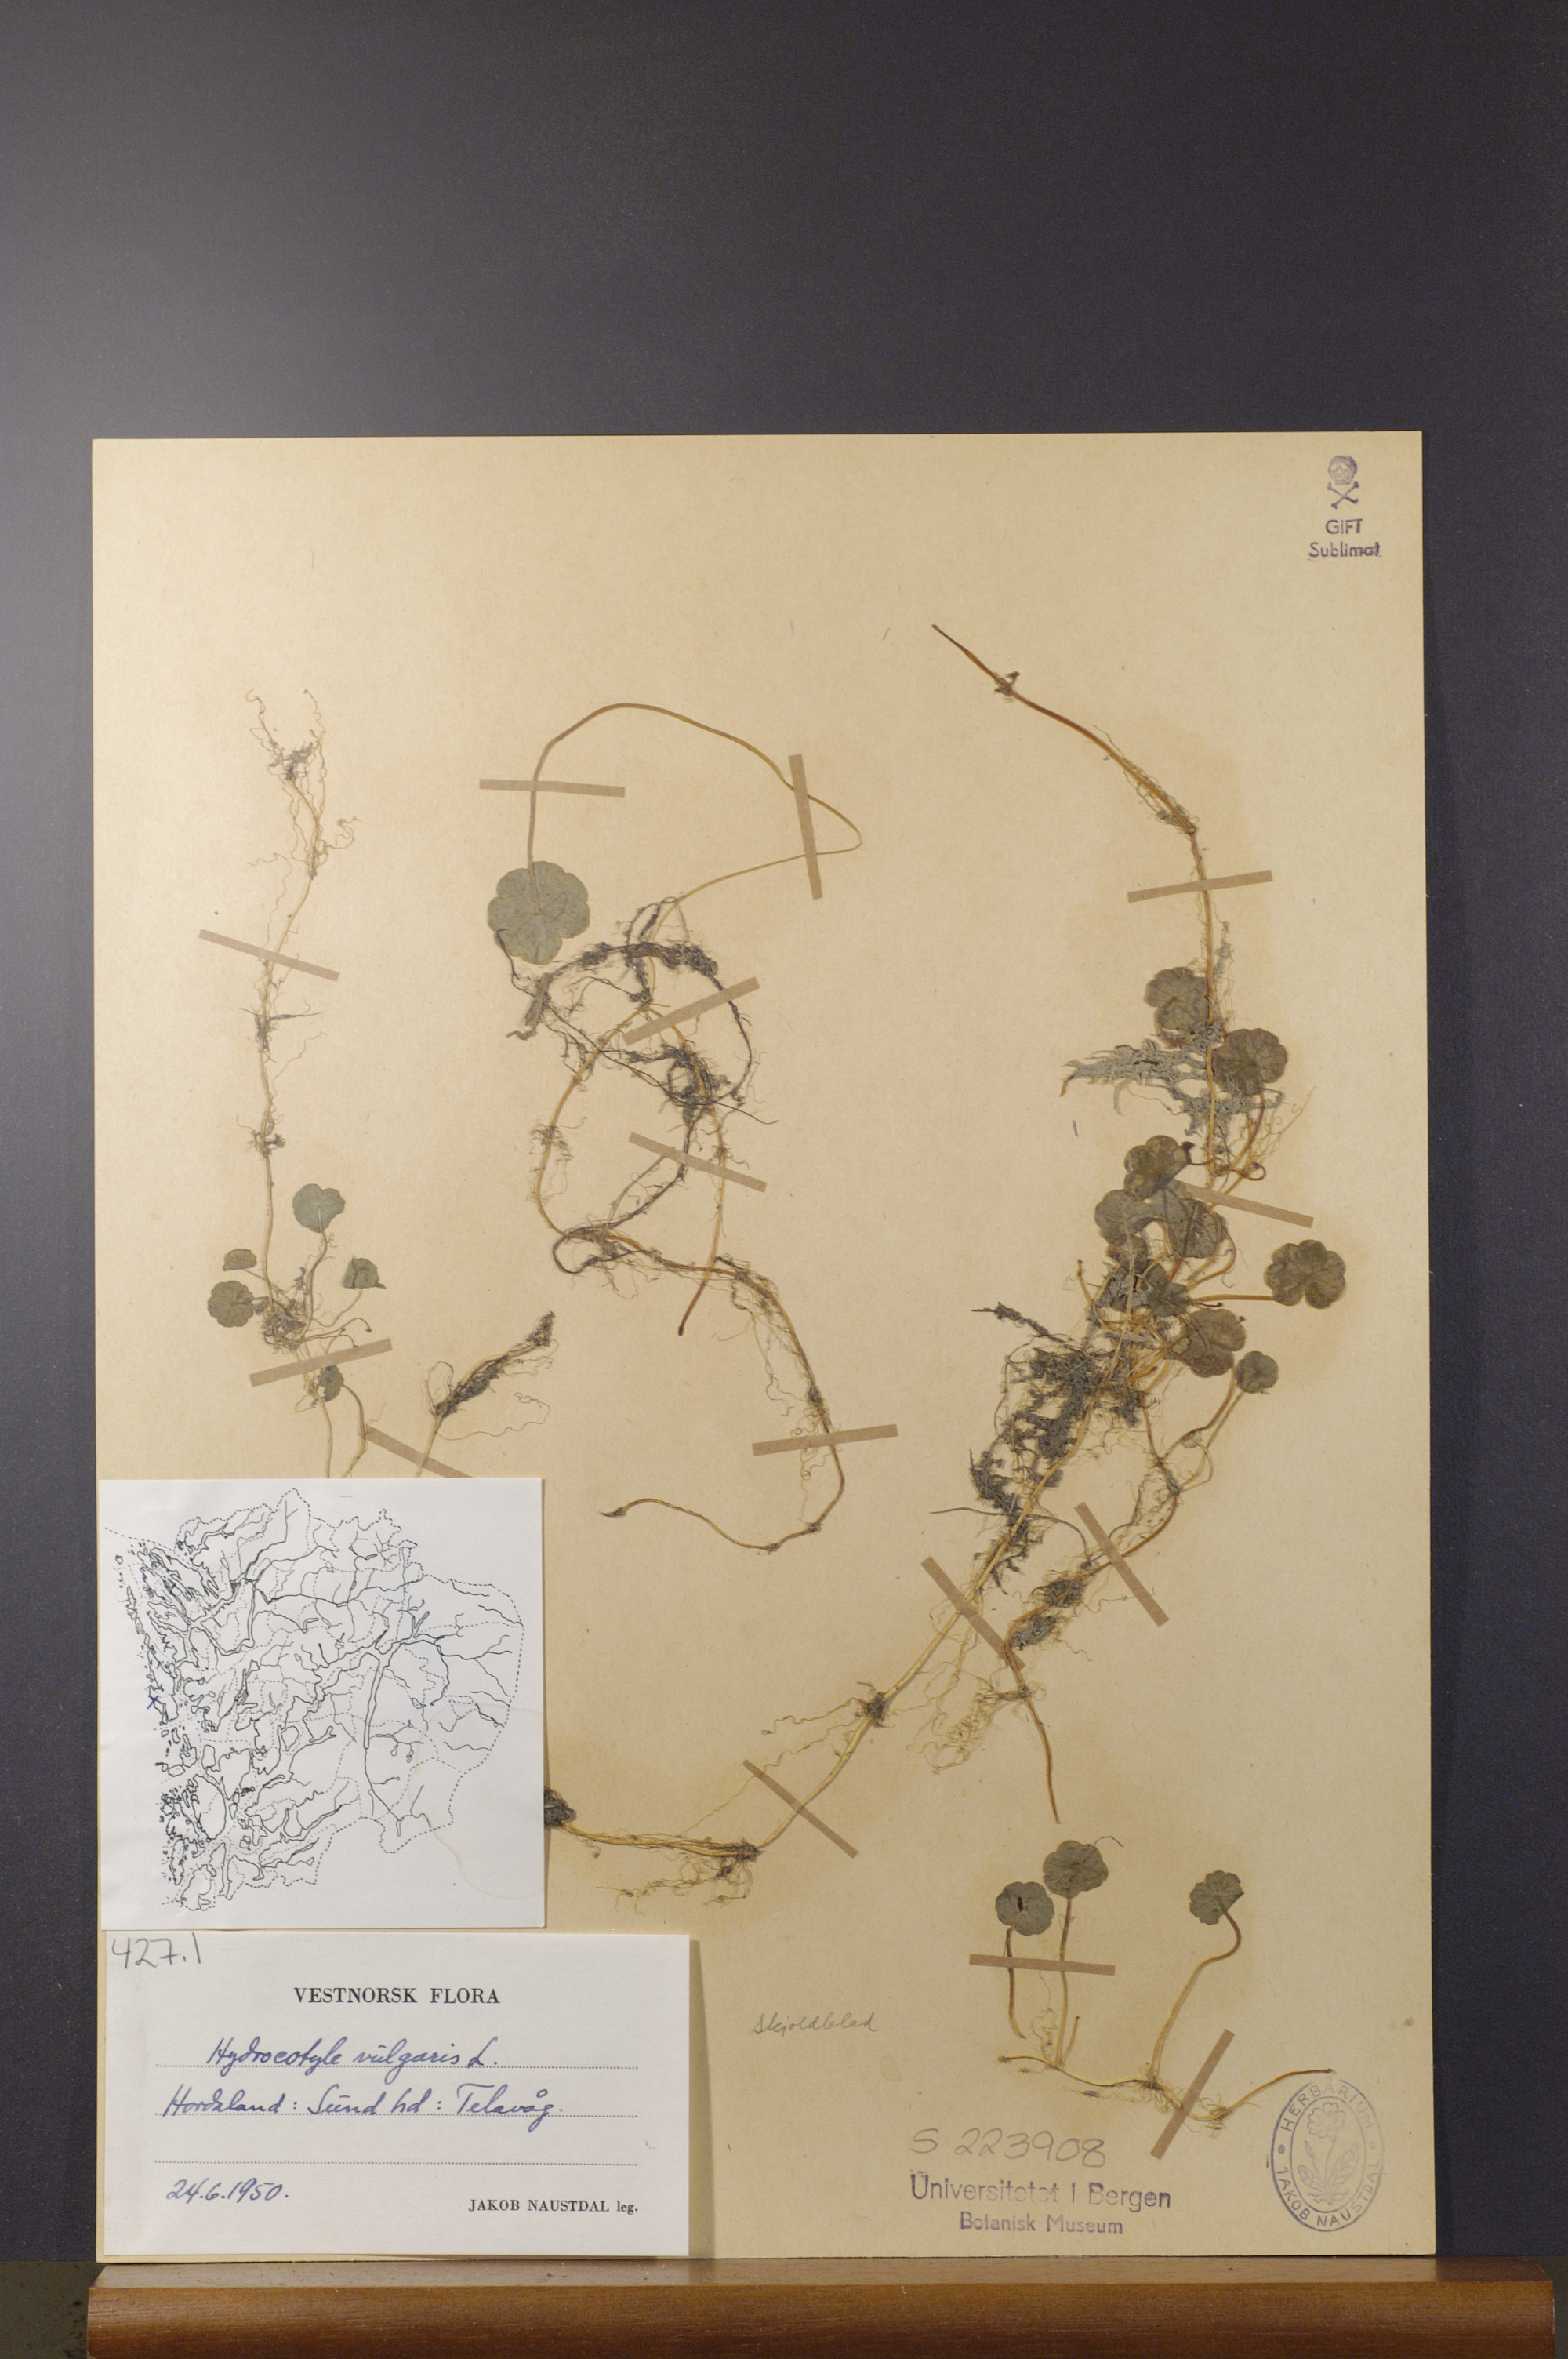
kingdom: Plantae
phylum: Tracheophyta
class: Magnoliopsida
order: Apiales
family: Araliaceae
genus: Hydrocotyle
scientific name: Hydrocotyle vulgaris
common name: Marsh pennywort
